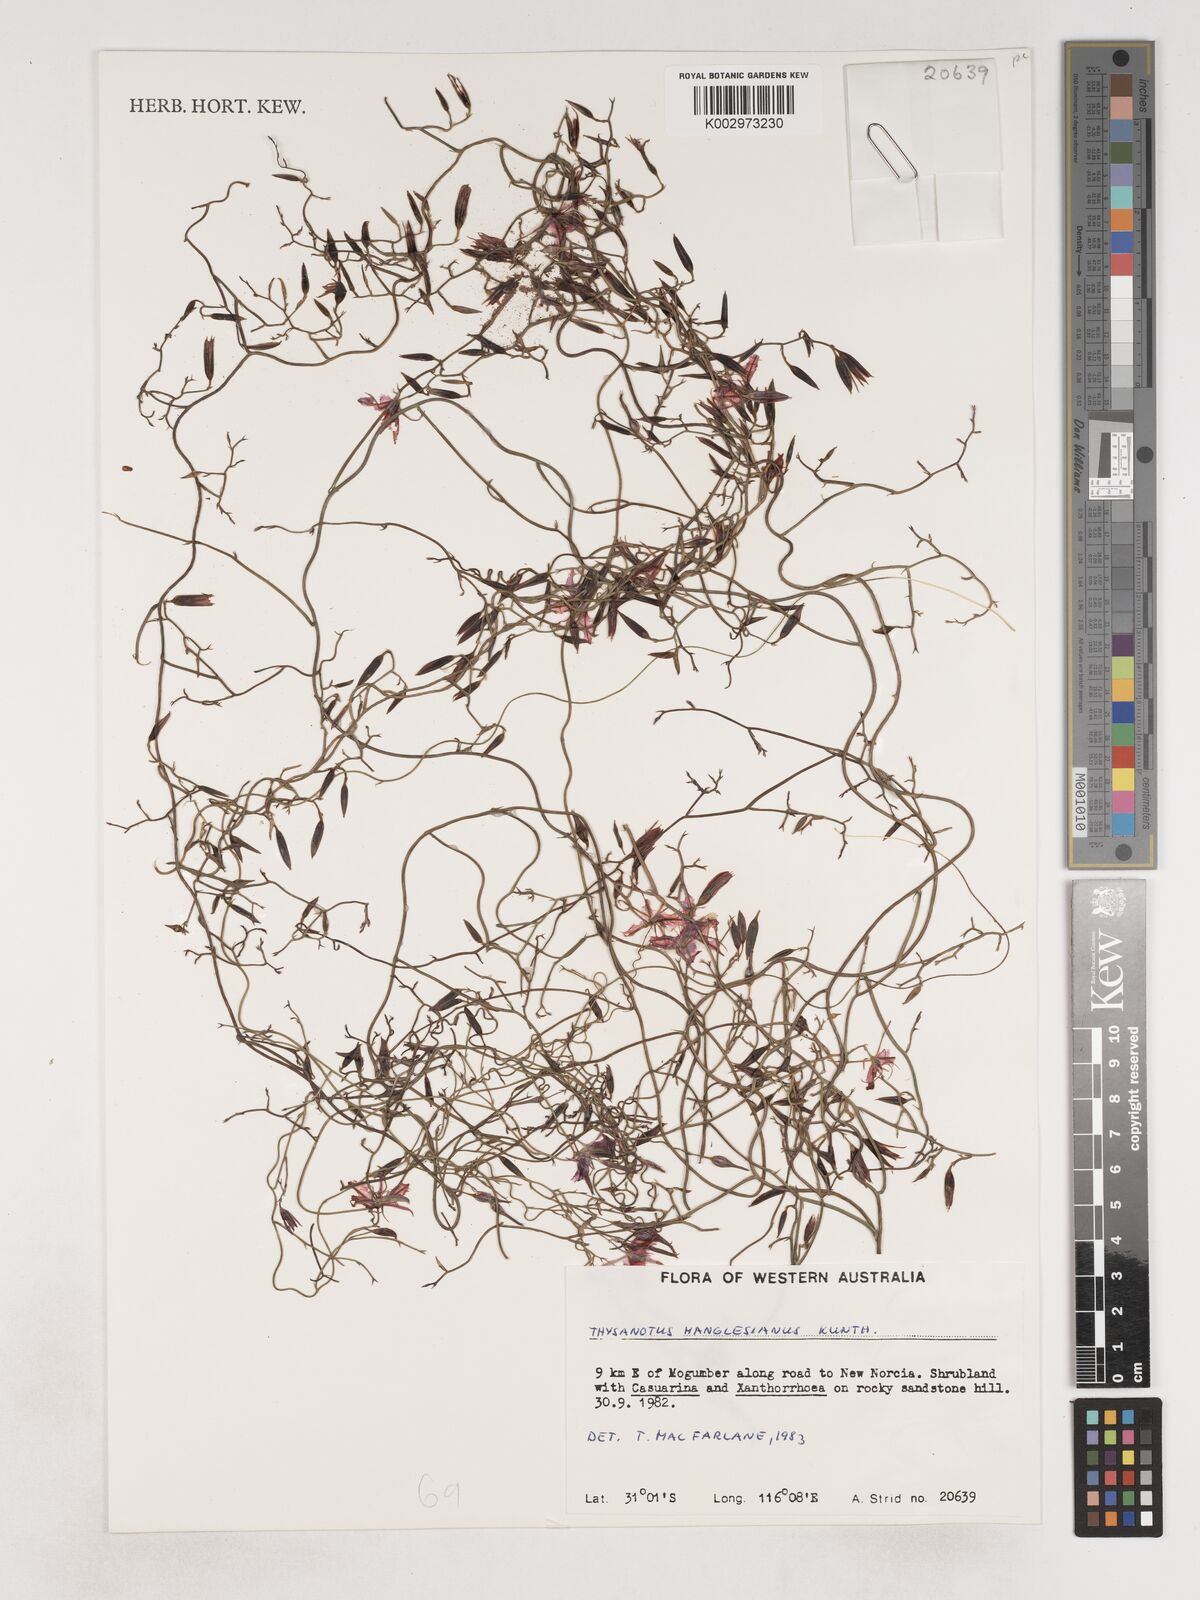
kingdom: Plantae
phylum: Tracheophyta
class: Liliopsida
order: Asparagales
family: Asparagaceae
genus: Thysanotus
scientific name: Thysanotus manglesianus
